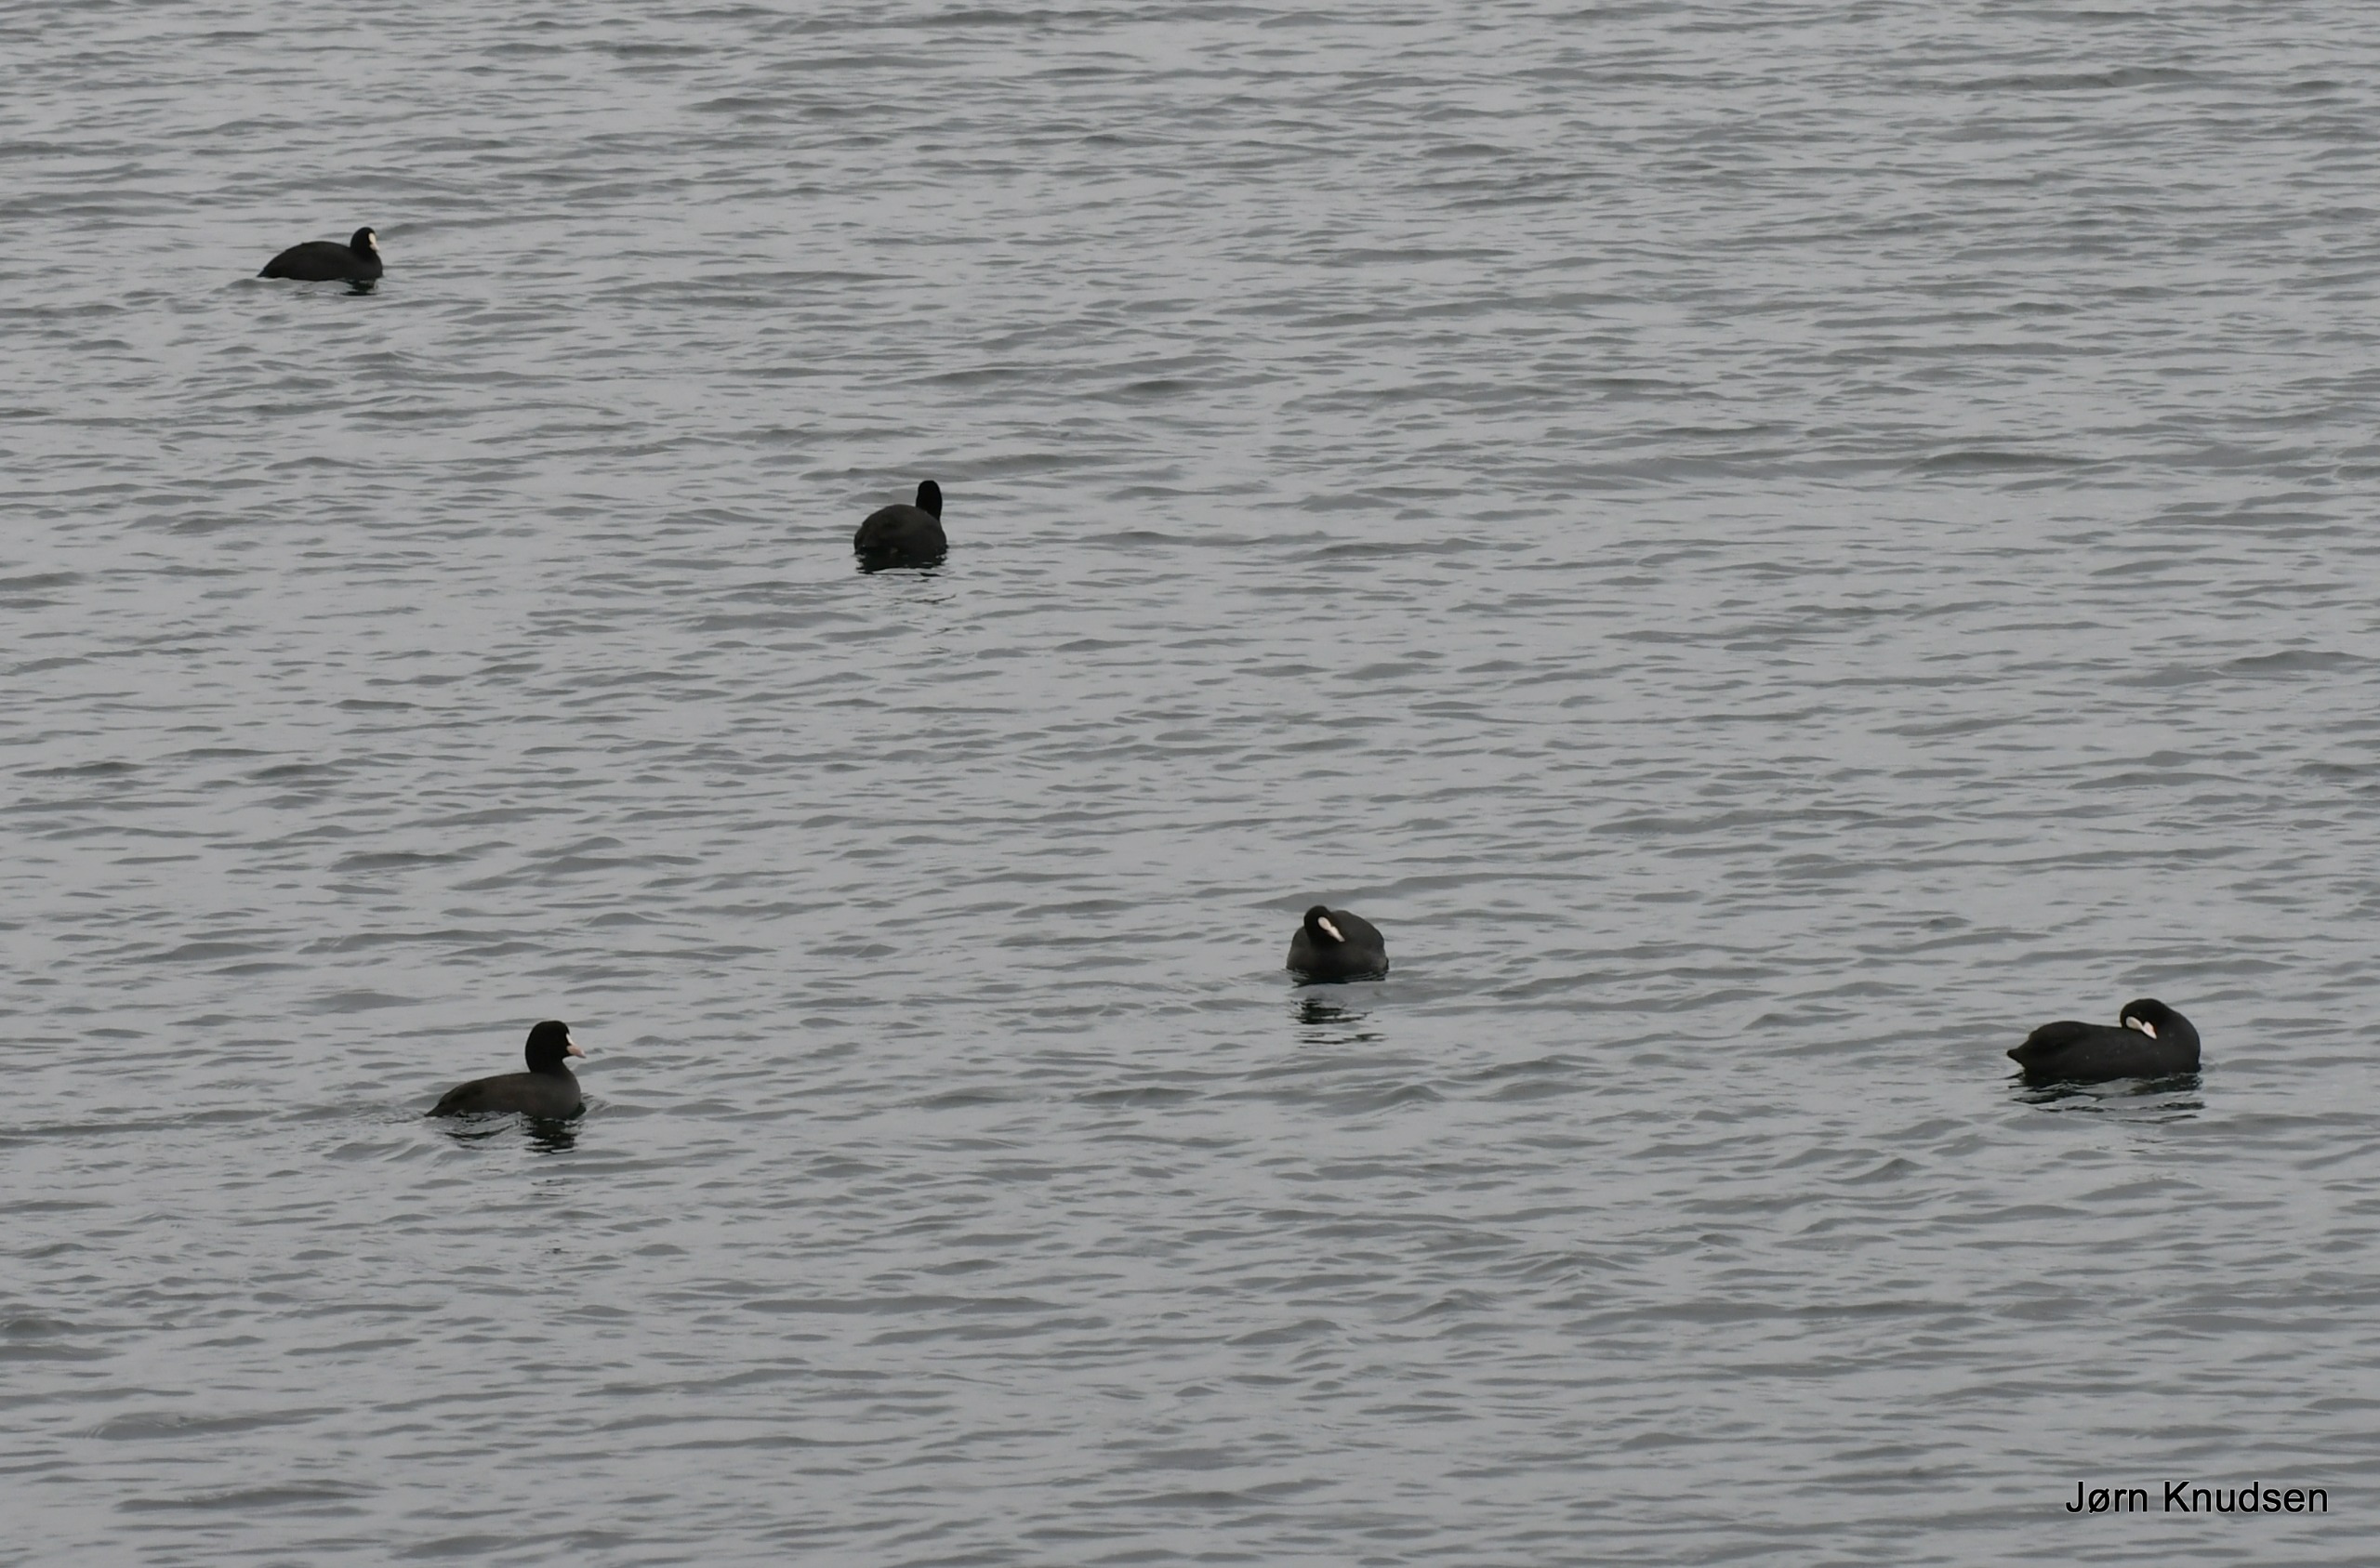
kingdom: Animalia
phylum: Chordata
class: Aves
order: Gruiformes
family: Rallidae
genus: Fulica
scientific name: Fulica atra
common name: Blishøne
